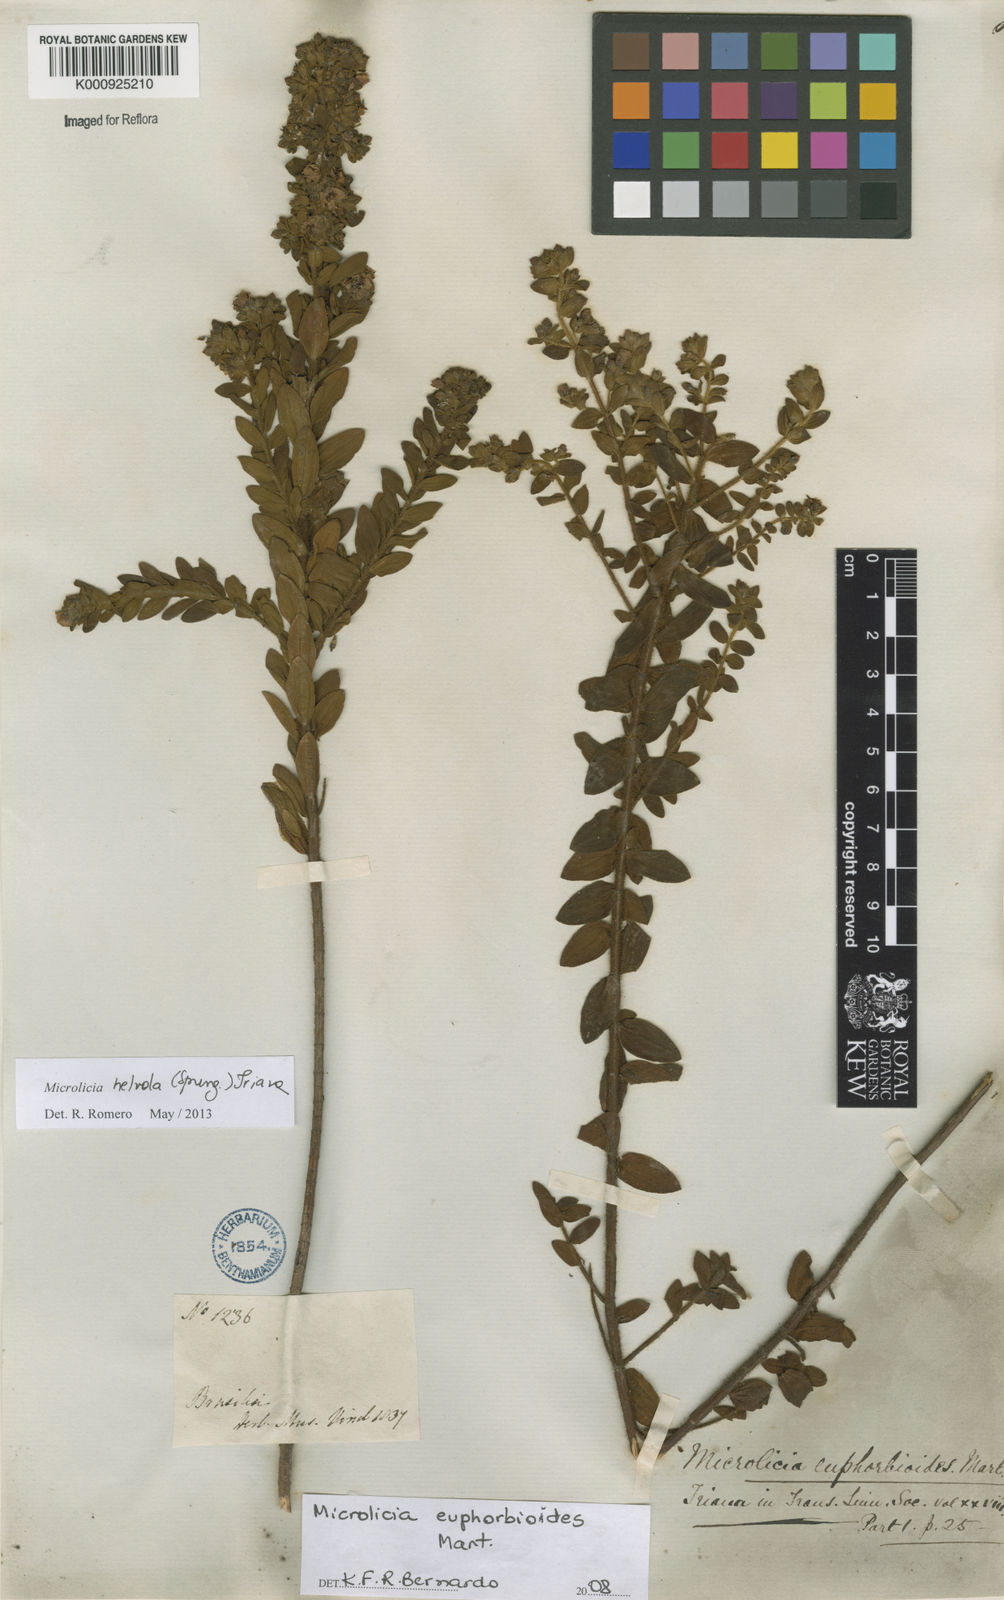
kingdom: Plantae
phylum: Tracheophyta
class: Magnoliopsida
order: Myrtales
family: Melastomataceae
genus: Microlicia
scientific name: Microlicia helvola
